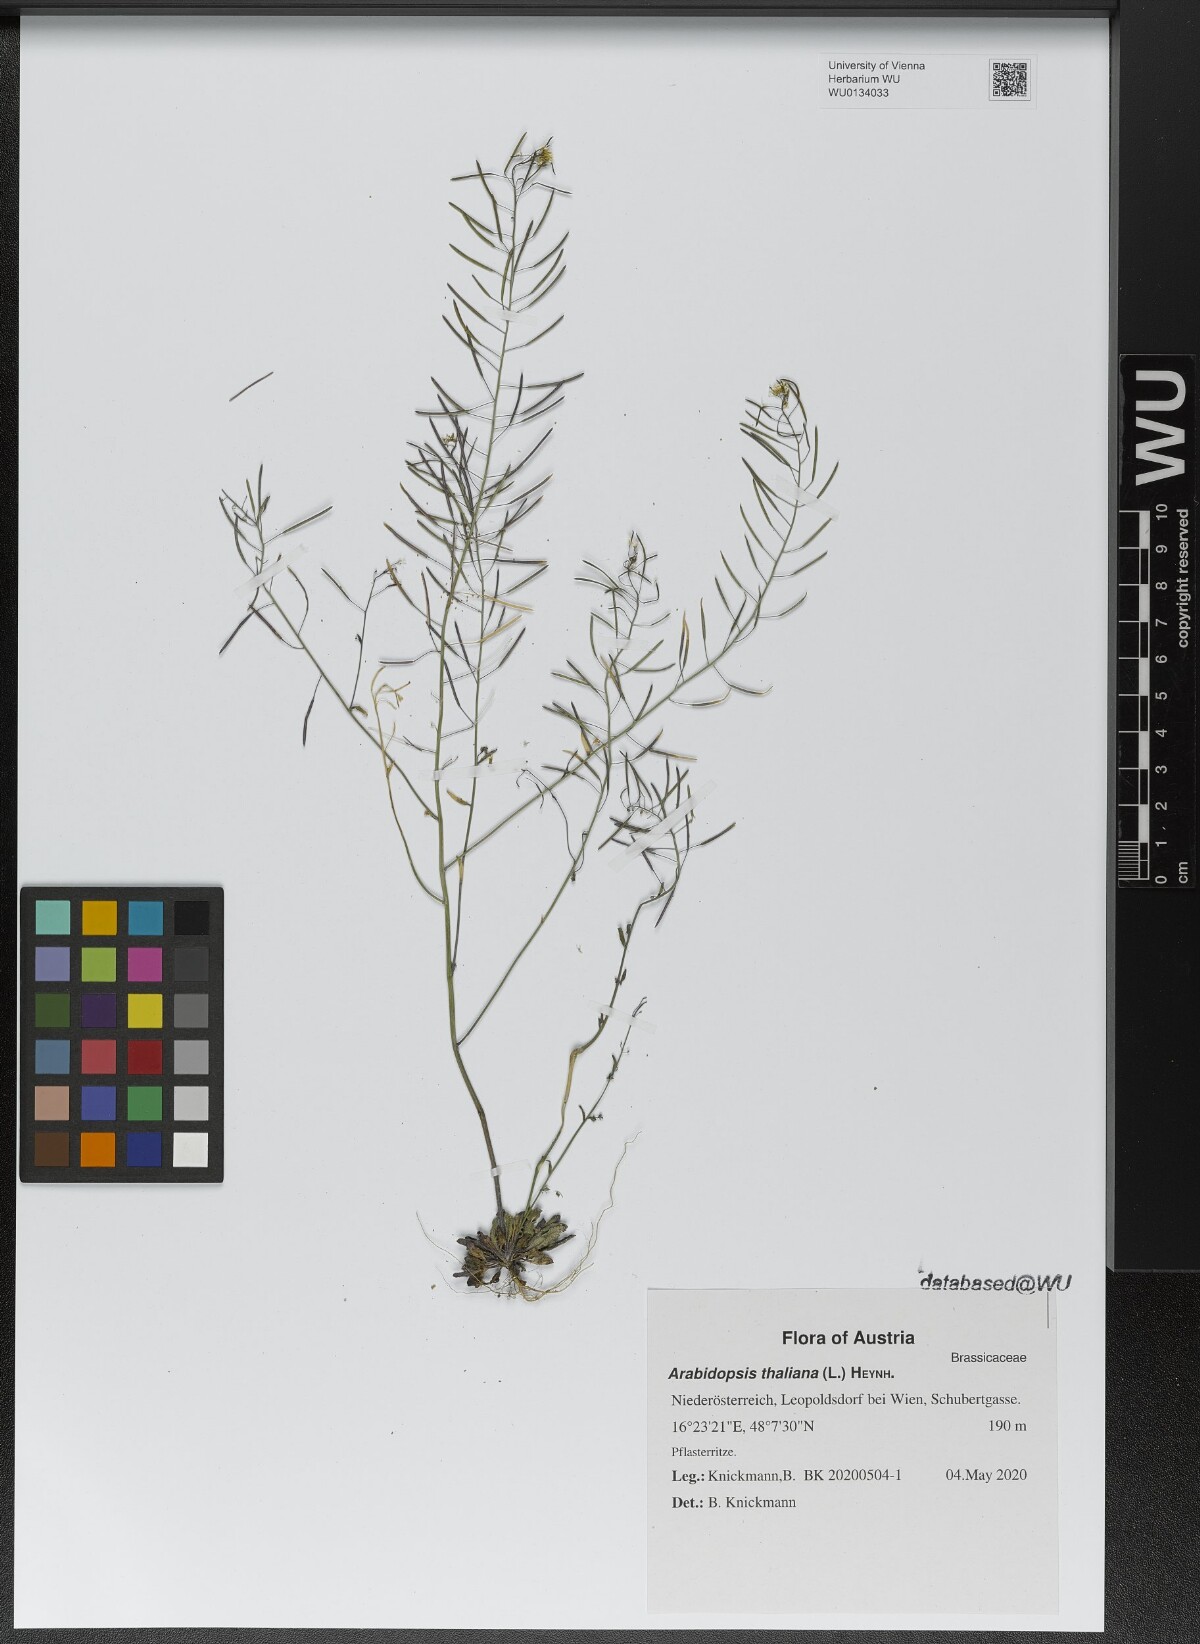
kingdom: Plantae
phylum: Tracheophyta
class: Magnoliopsida
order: Brassicales
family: Brassicaceae
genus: Arabidopsis
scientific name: Arabidopsis thaliana
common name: Thale cress
